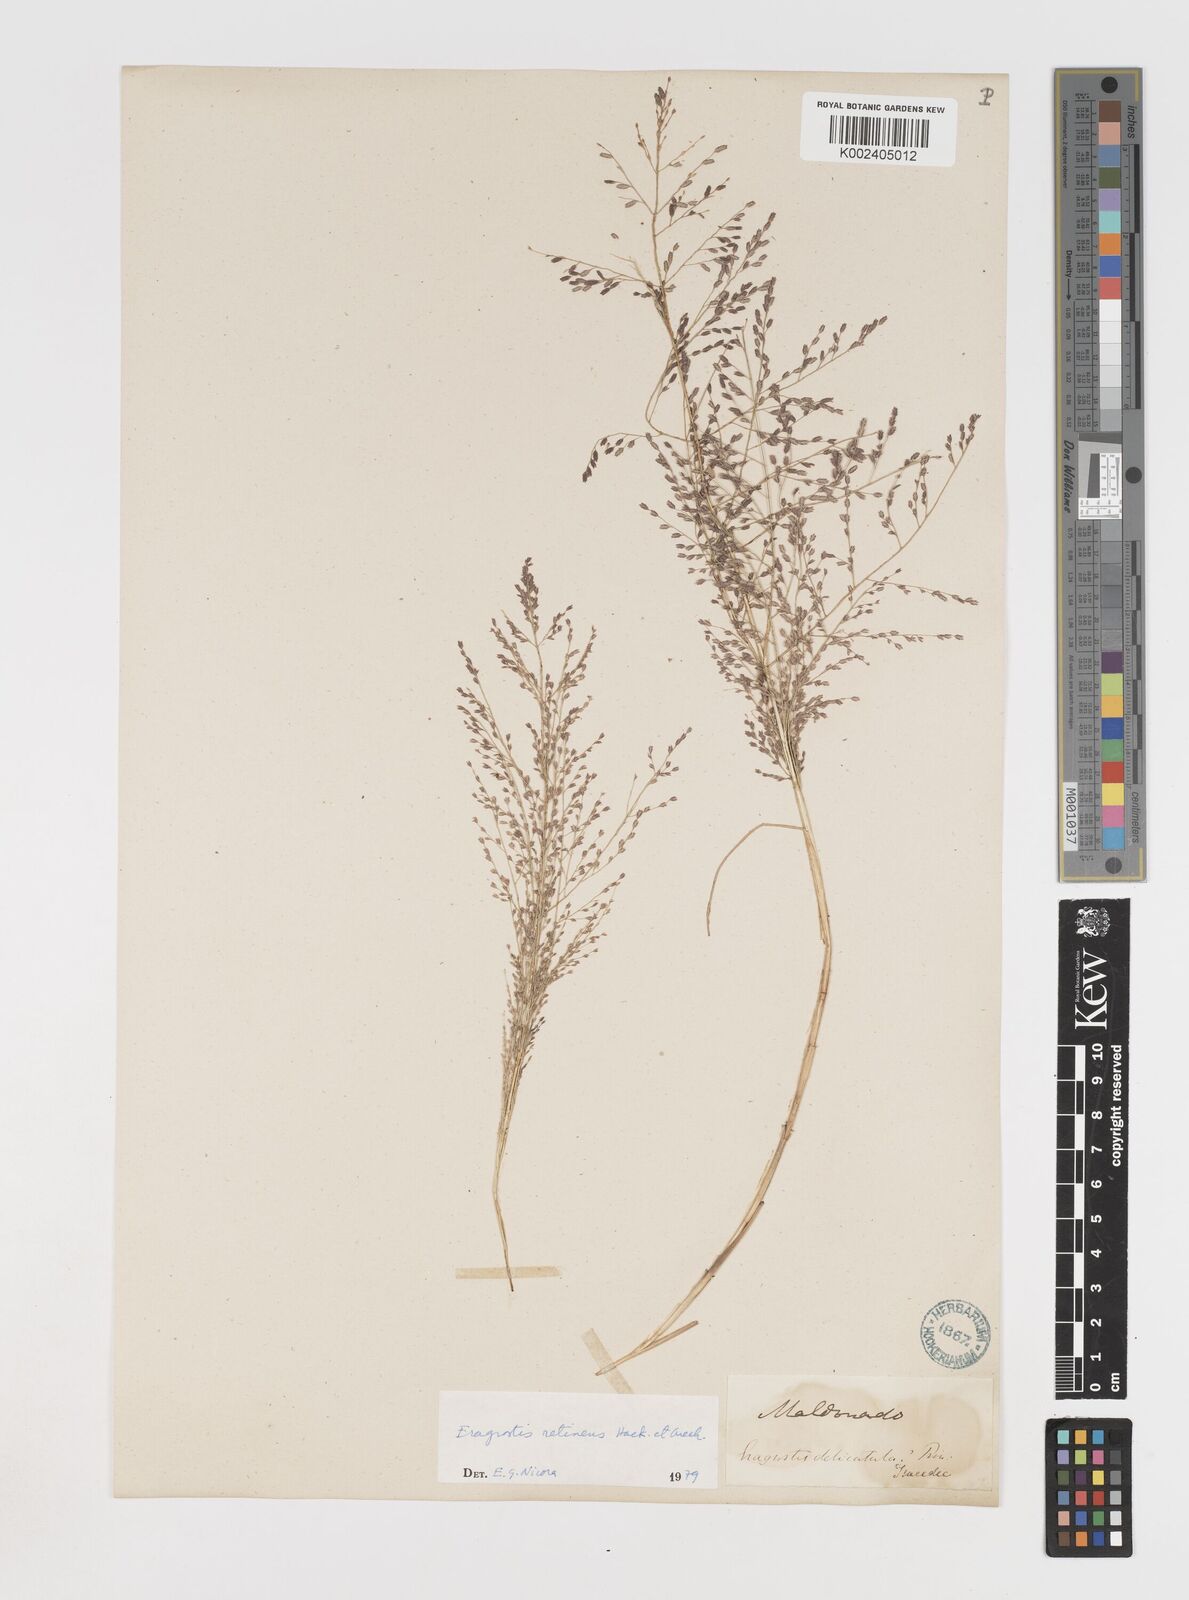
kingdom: Plantae
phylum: Tracheophyta
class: Liliopsida
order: Poales
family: Poaceae
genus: Eragrostis
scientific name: Eragrostis retinens
